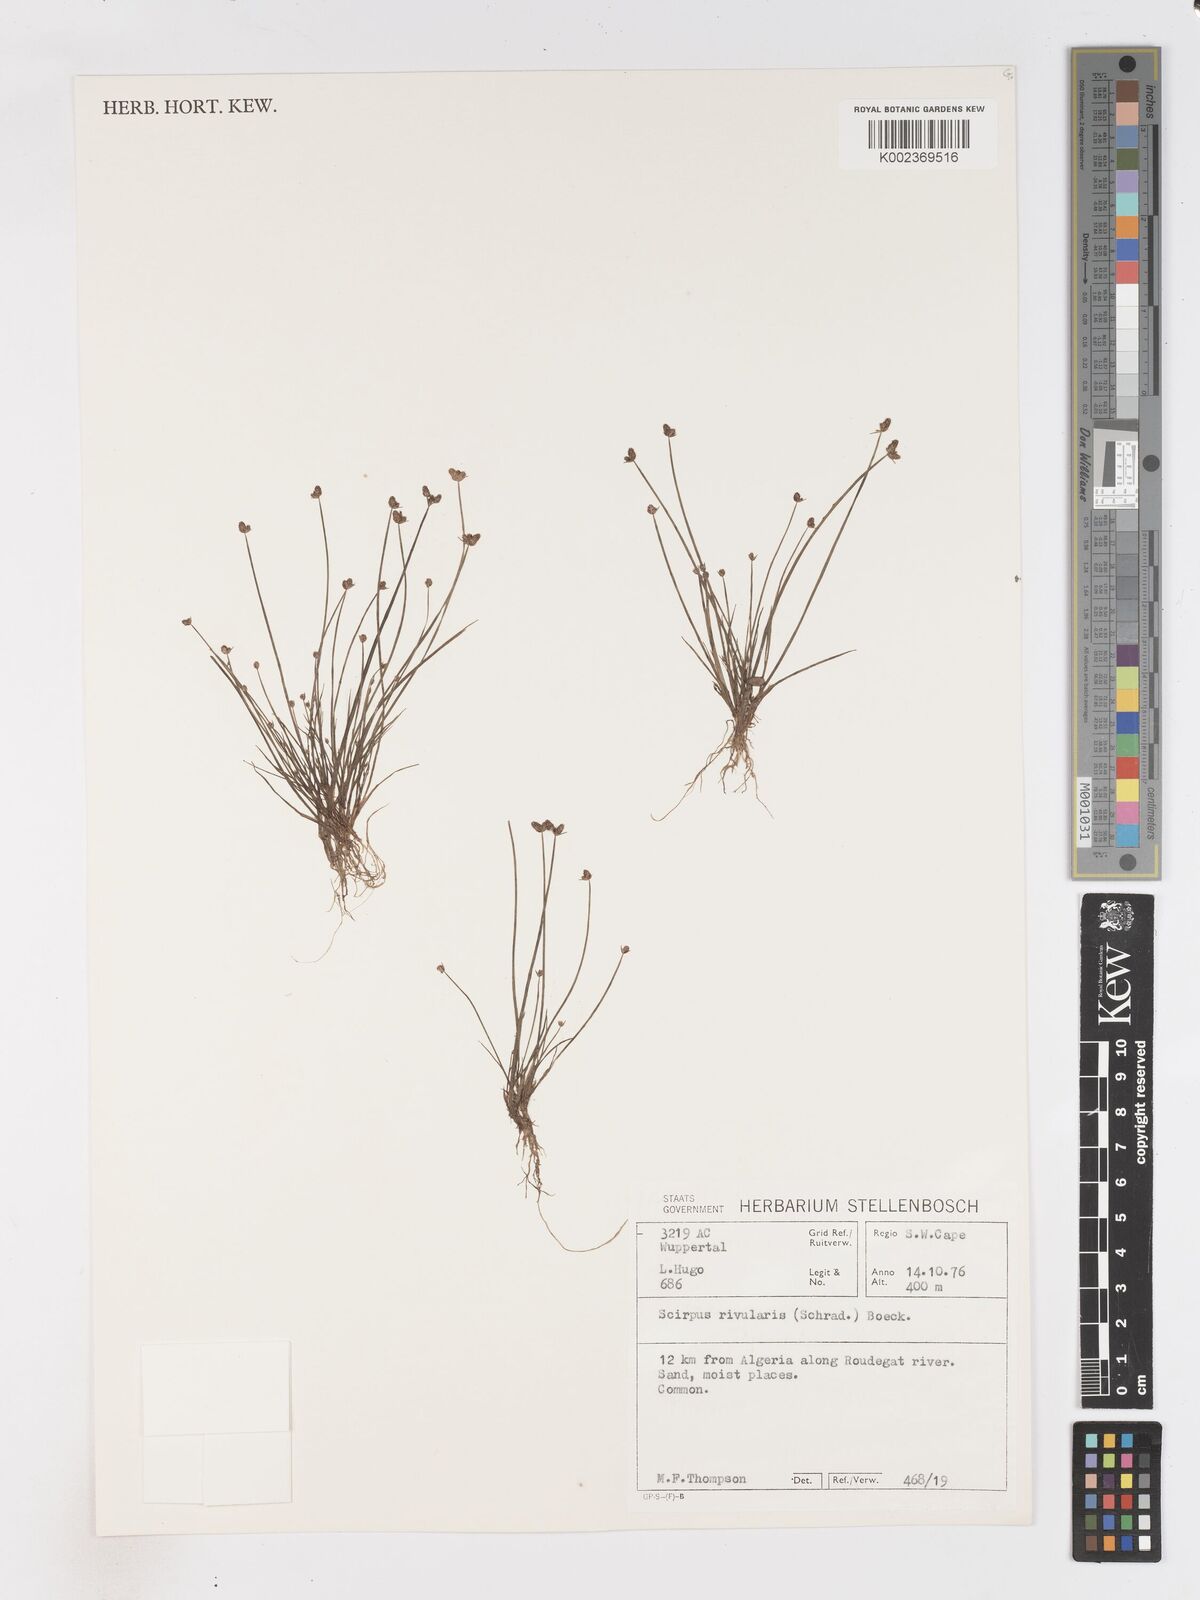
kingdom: Plantae
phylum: Tracheophyta
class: Liliopsida
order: Poales
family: Cyperaceae
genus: Isolepis
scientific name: Isolepis natans
